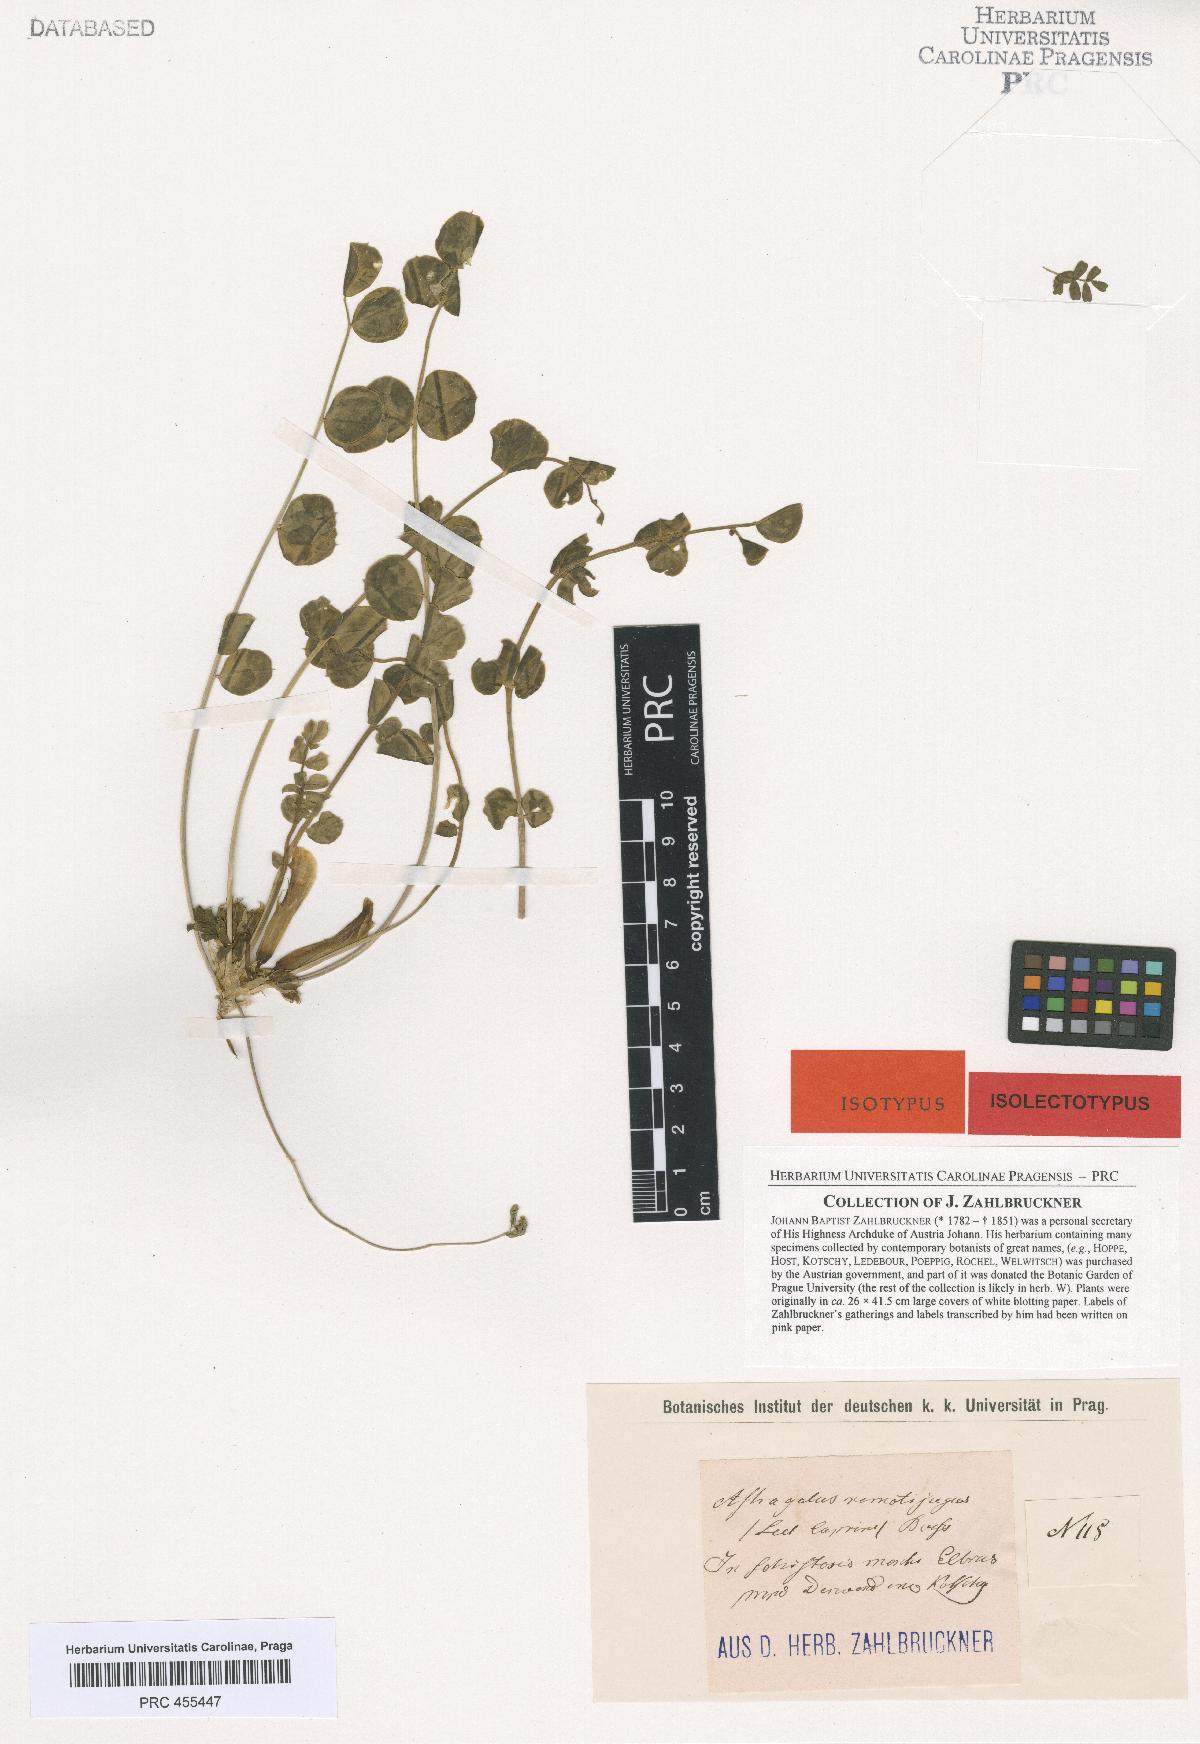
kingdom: Plantae
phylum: Tracheophyta
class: Magnoliopsida
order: Fabales
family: Fabaceae
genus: Astragalus
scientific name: Astragalus remotijugus
